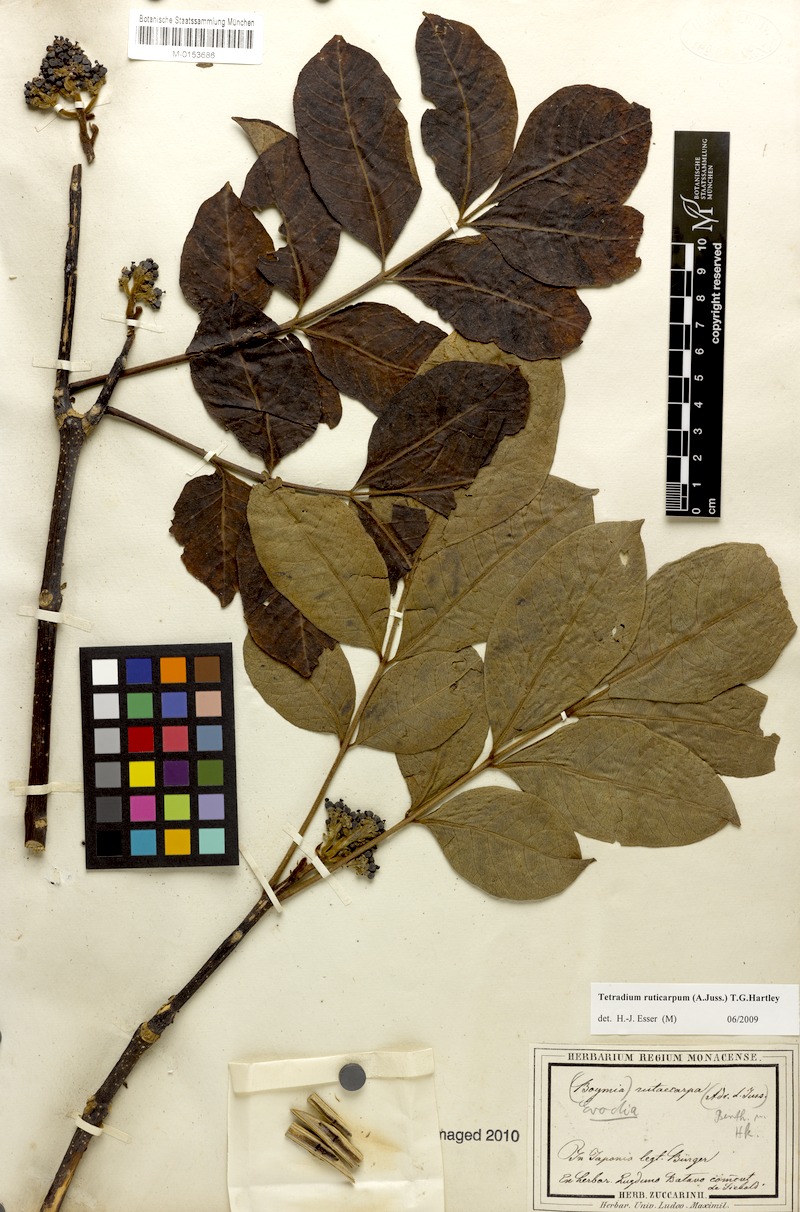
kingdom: Plantae
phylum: Tracheophyta
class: Magnoliopsida
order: Sapindales
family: Rutaceae
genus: Tetradium
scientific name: Tetradium ruticarpum
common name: Evodia
